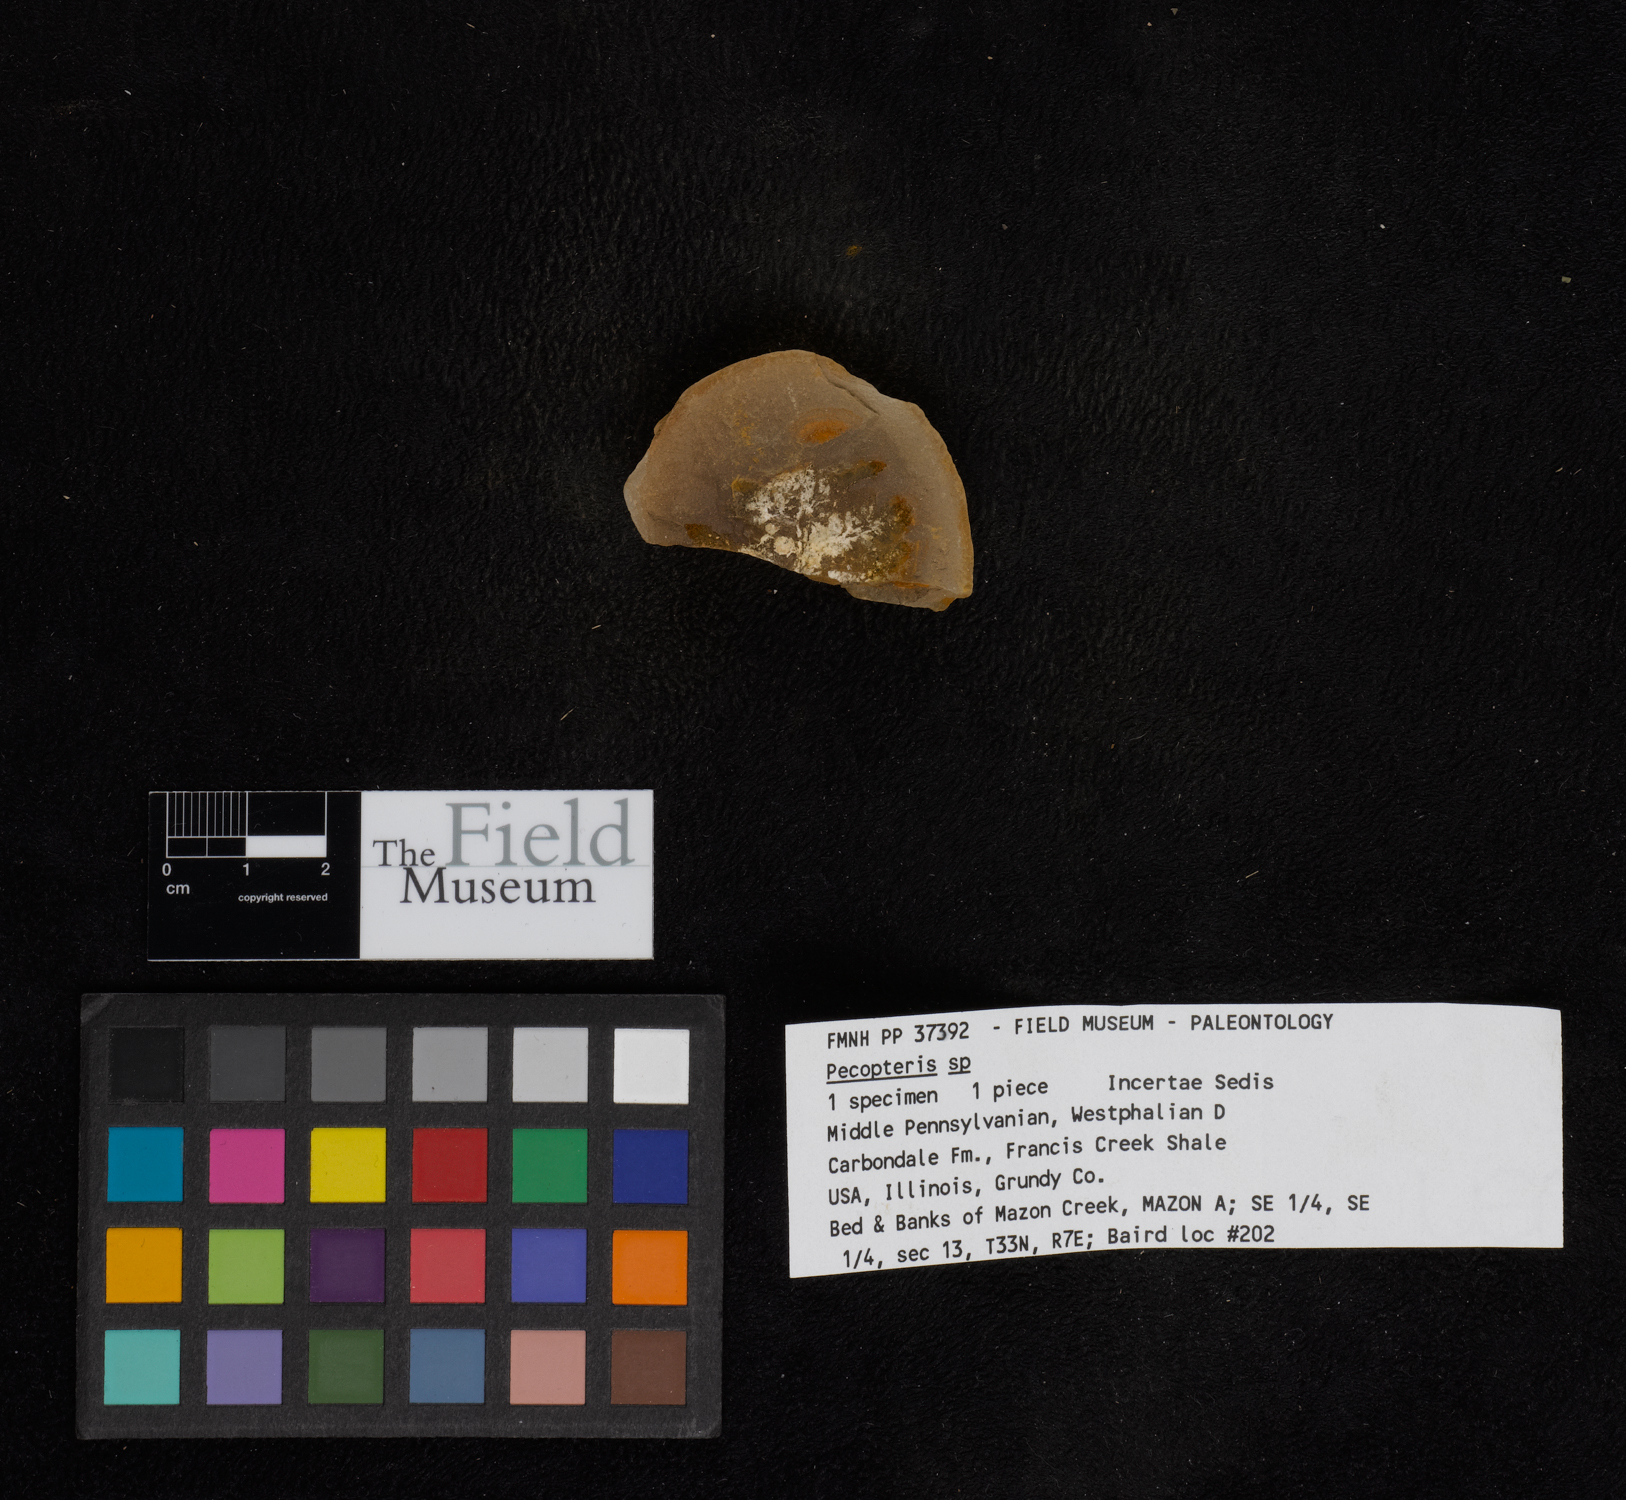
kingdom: Plantae
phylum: Tracheophyta
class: Polypodiopsida
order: Marattiales
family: Asterothecaceae
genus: Pecopteris
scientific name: Pecopteris
